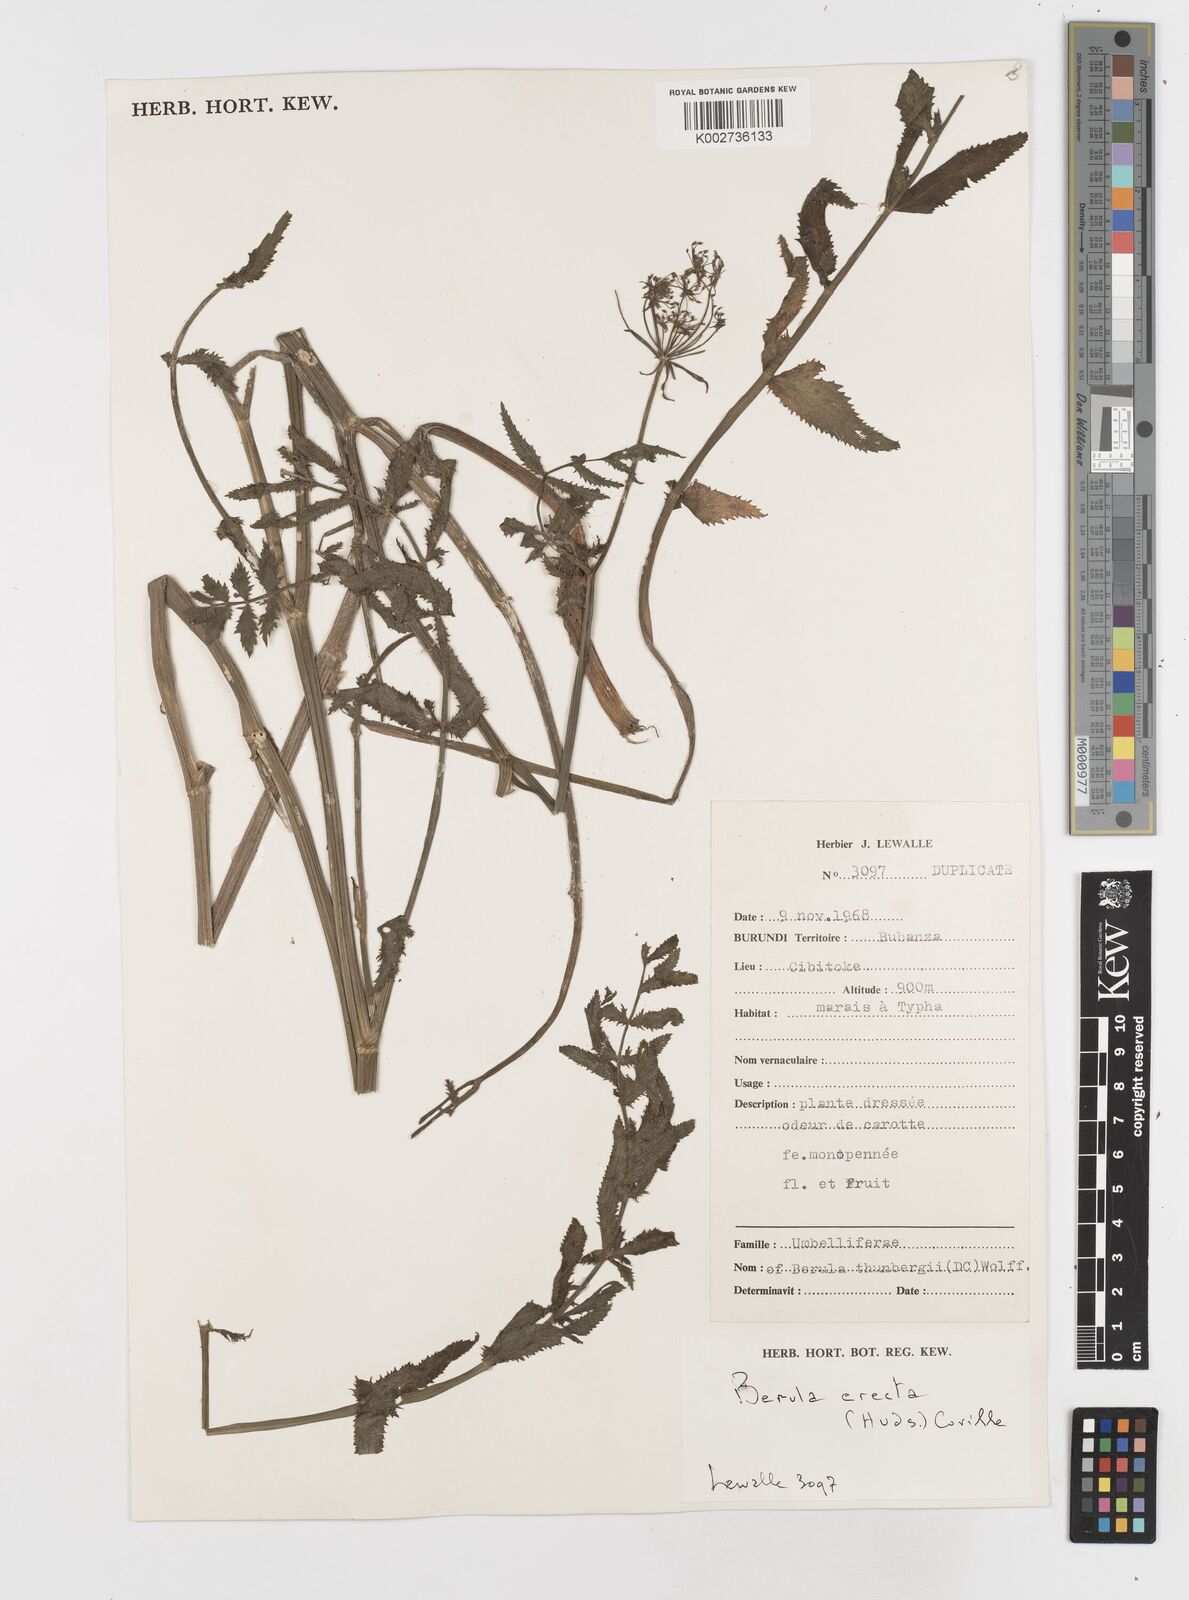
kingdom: Plantae
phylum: Tracheophyta
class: Magnoliopsida
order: Apiales
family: Apiaceae
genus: Berula
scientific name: Berula erecta
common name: Lesser water-parsnip
